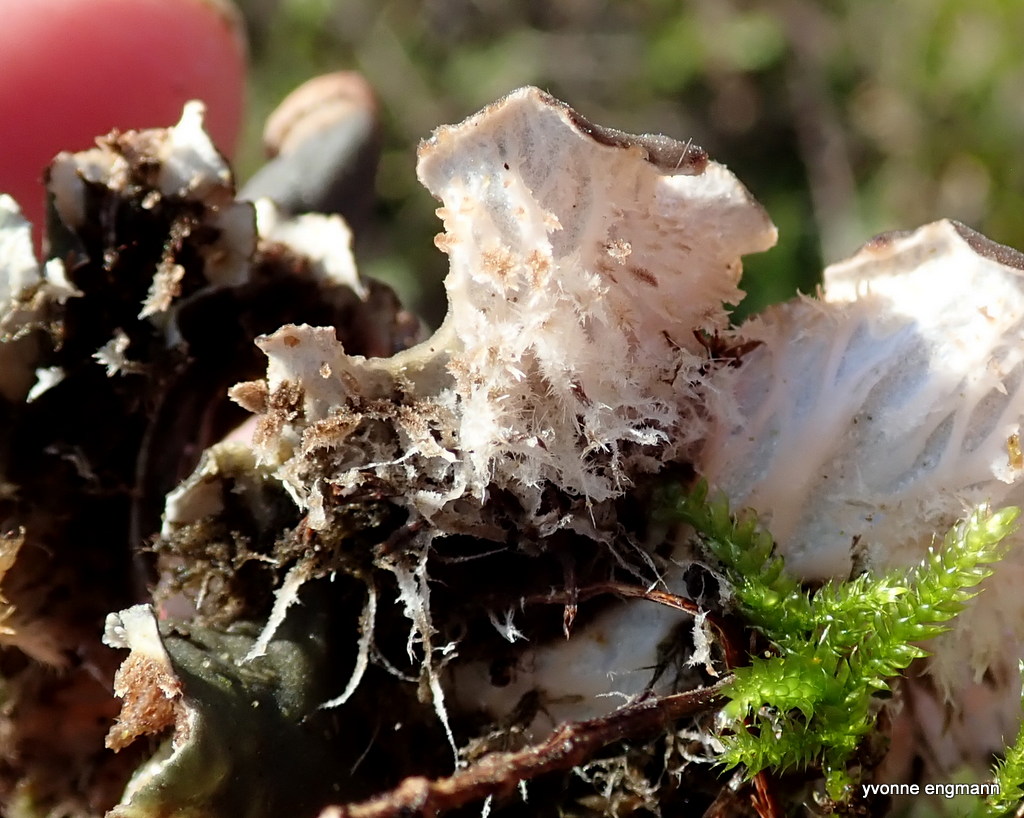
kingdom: Fungi
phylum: Ascomycota
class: Lecanoromycetes
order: Peltigerales
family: Peltigeraceae
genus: Peltigera
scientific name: Peltigera
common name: skjoldlav
